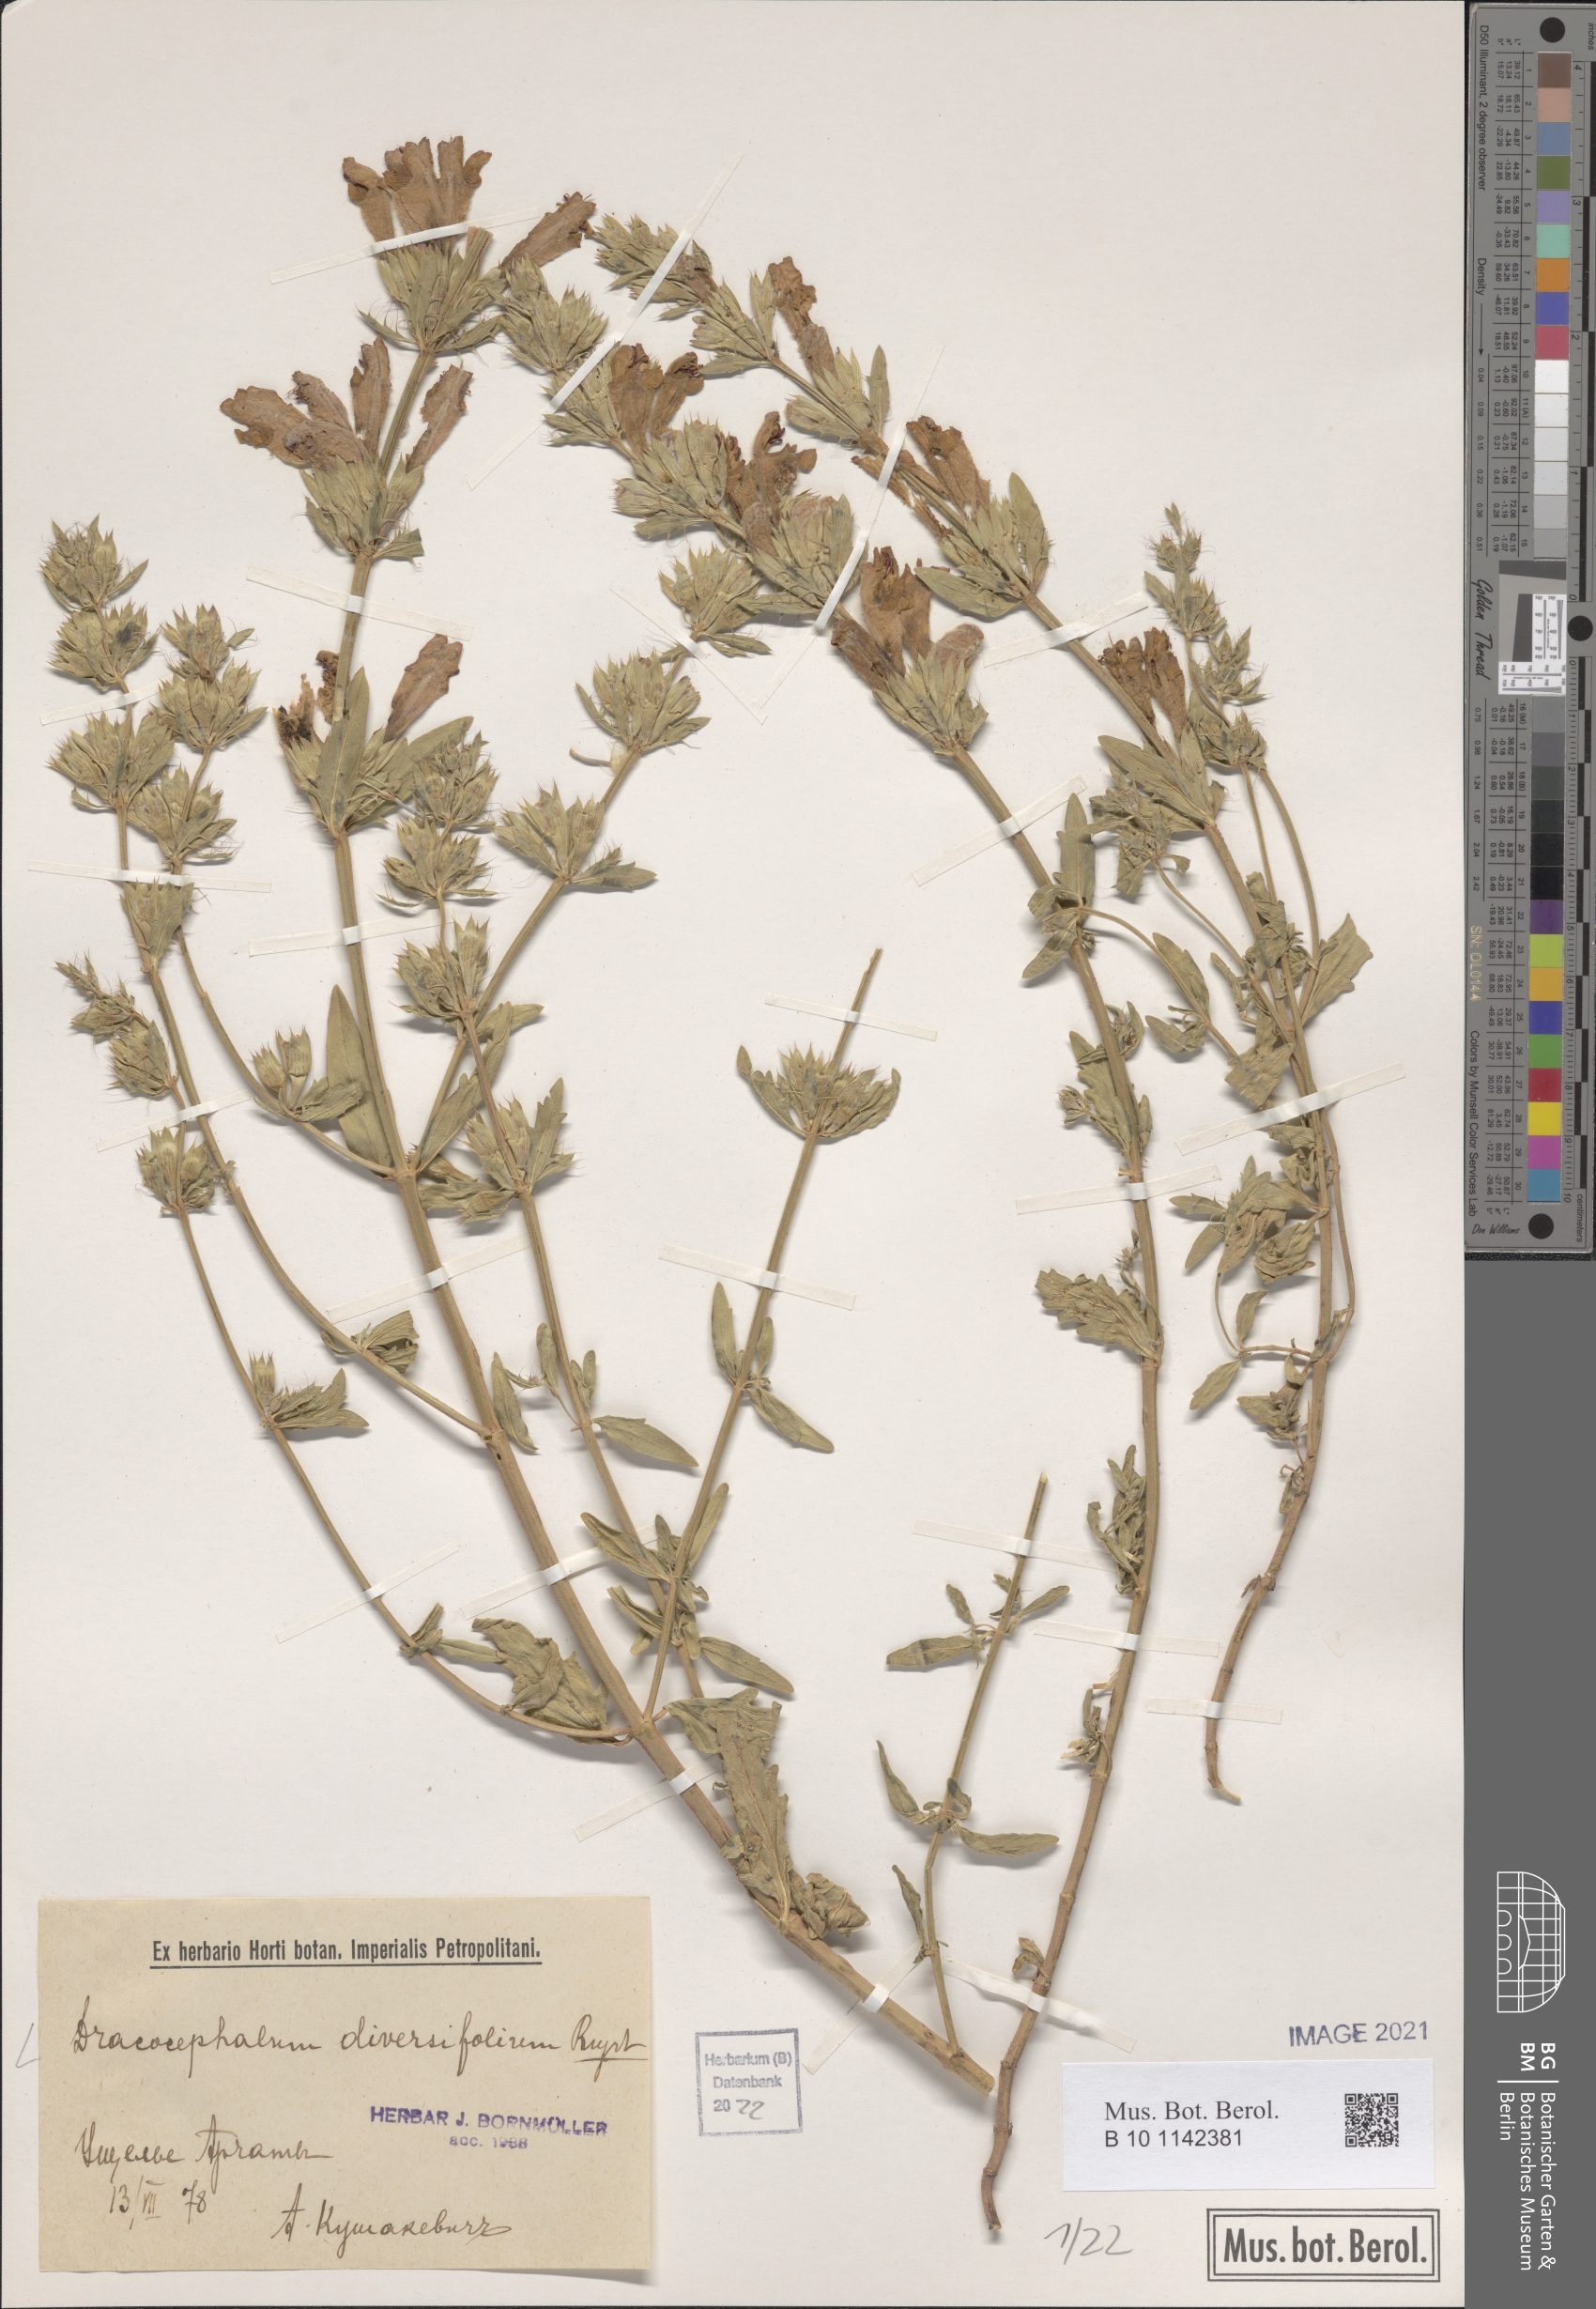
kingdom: Plantae
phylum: Tracheophyta
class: Magnoliopsida
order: Lamiales
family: Lamiaceae
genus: Dracocephalum
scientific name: Dracocephalum diversifolium
